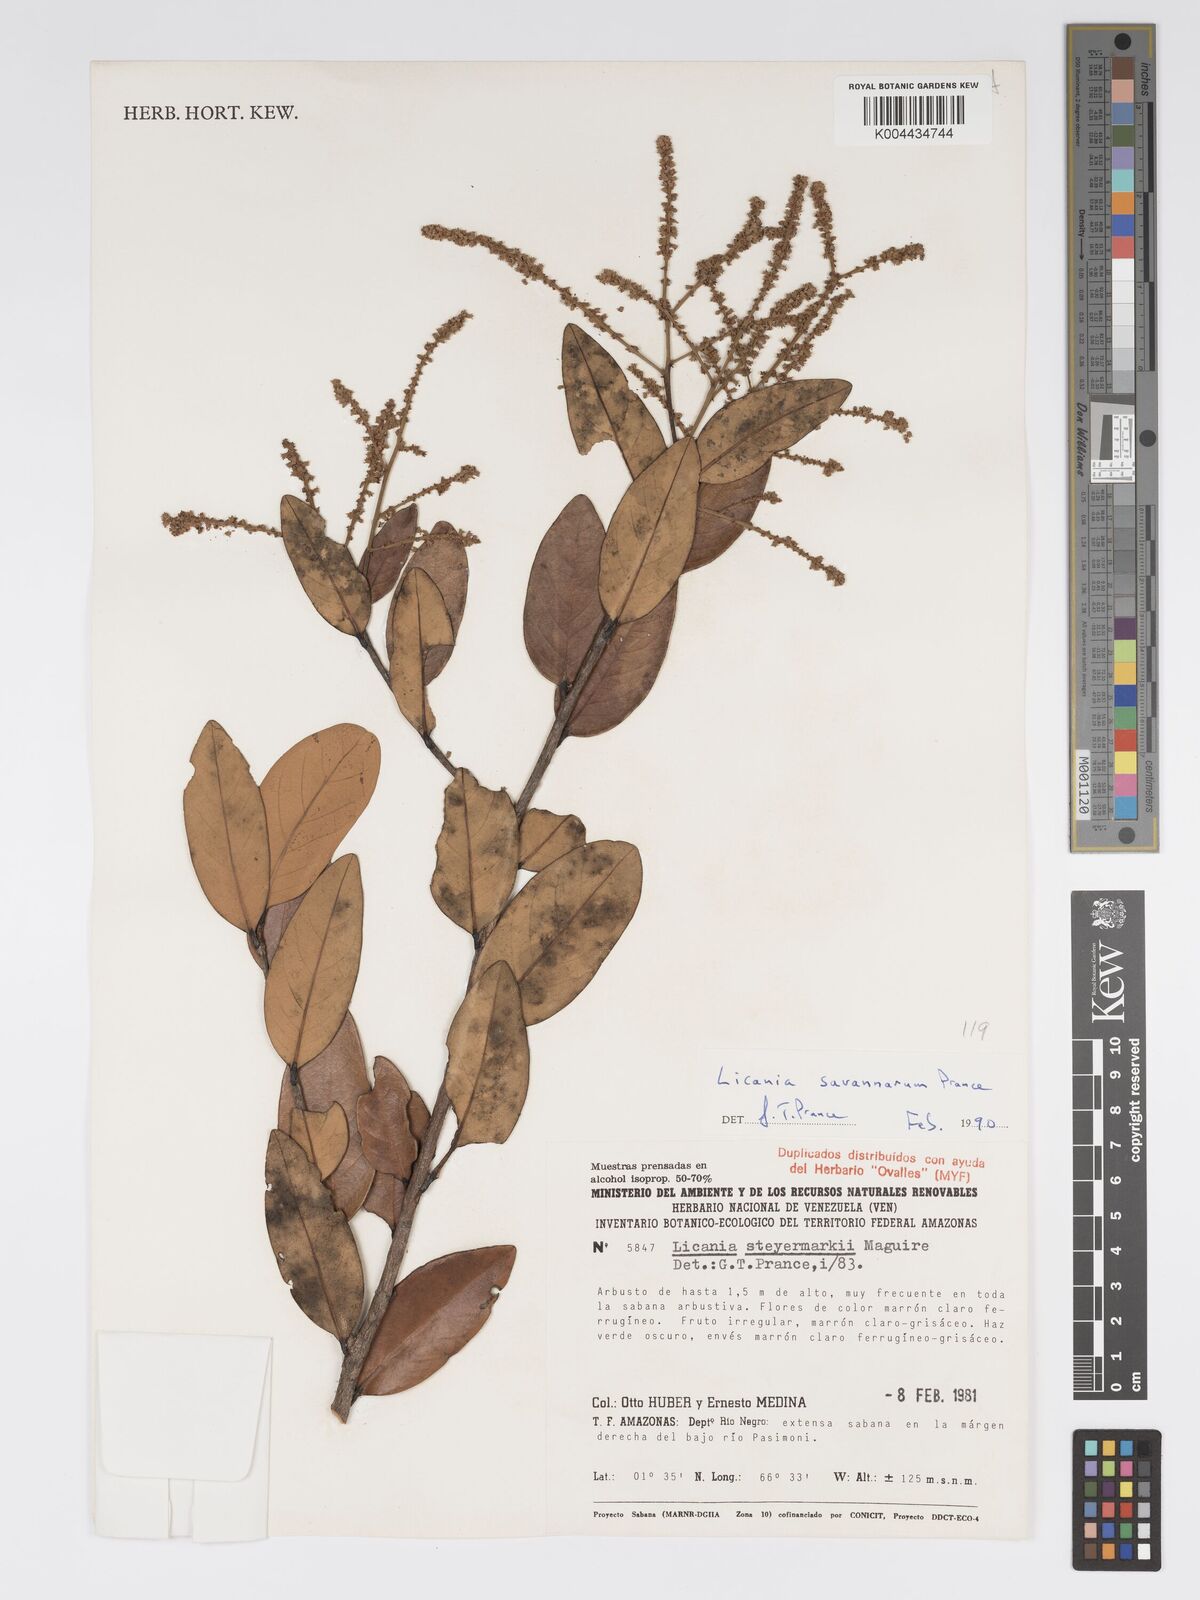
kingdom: Plantae
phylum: Tracheophyta
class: Magnoliopsida
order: Malpighiales
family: Chrysobalanaceae
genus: Licania
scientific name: Licania savannarum
